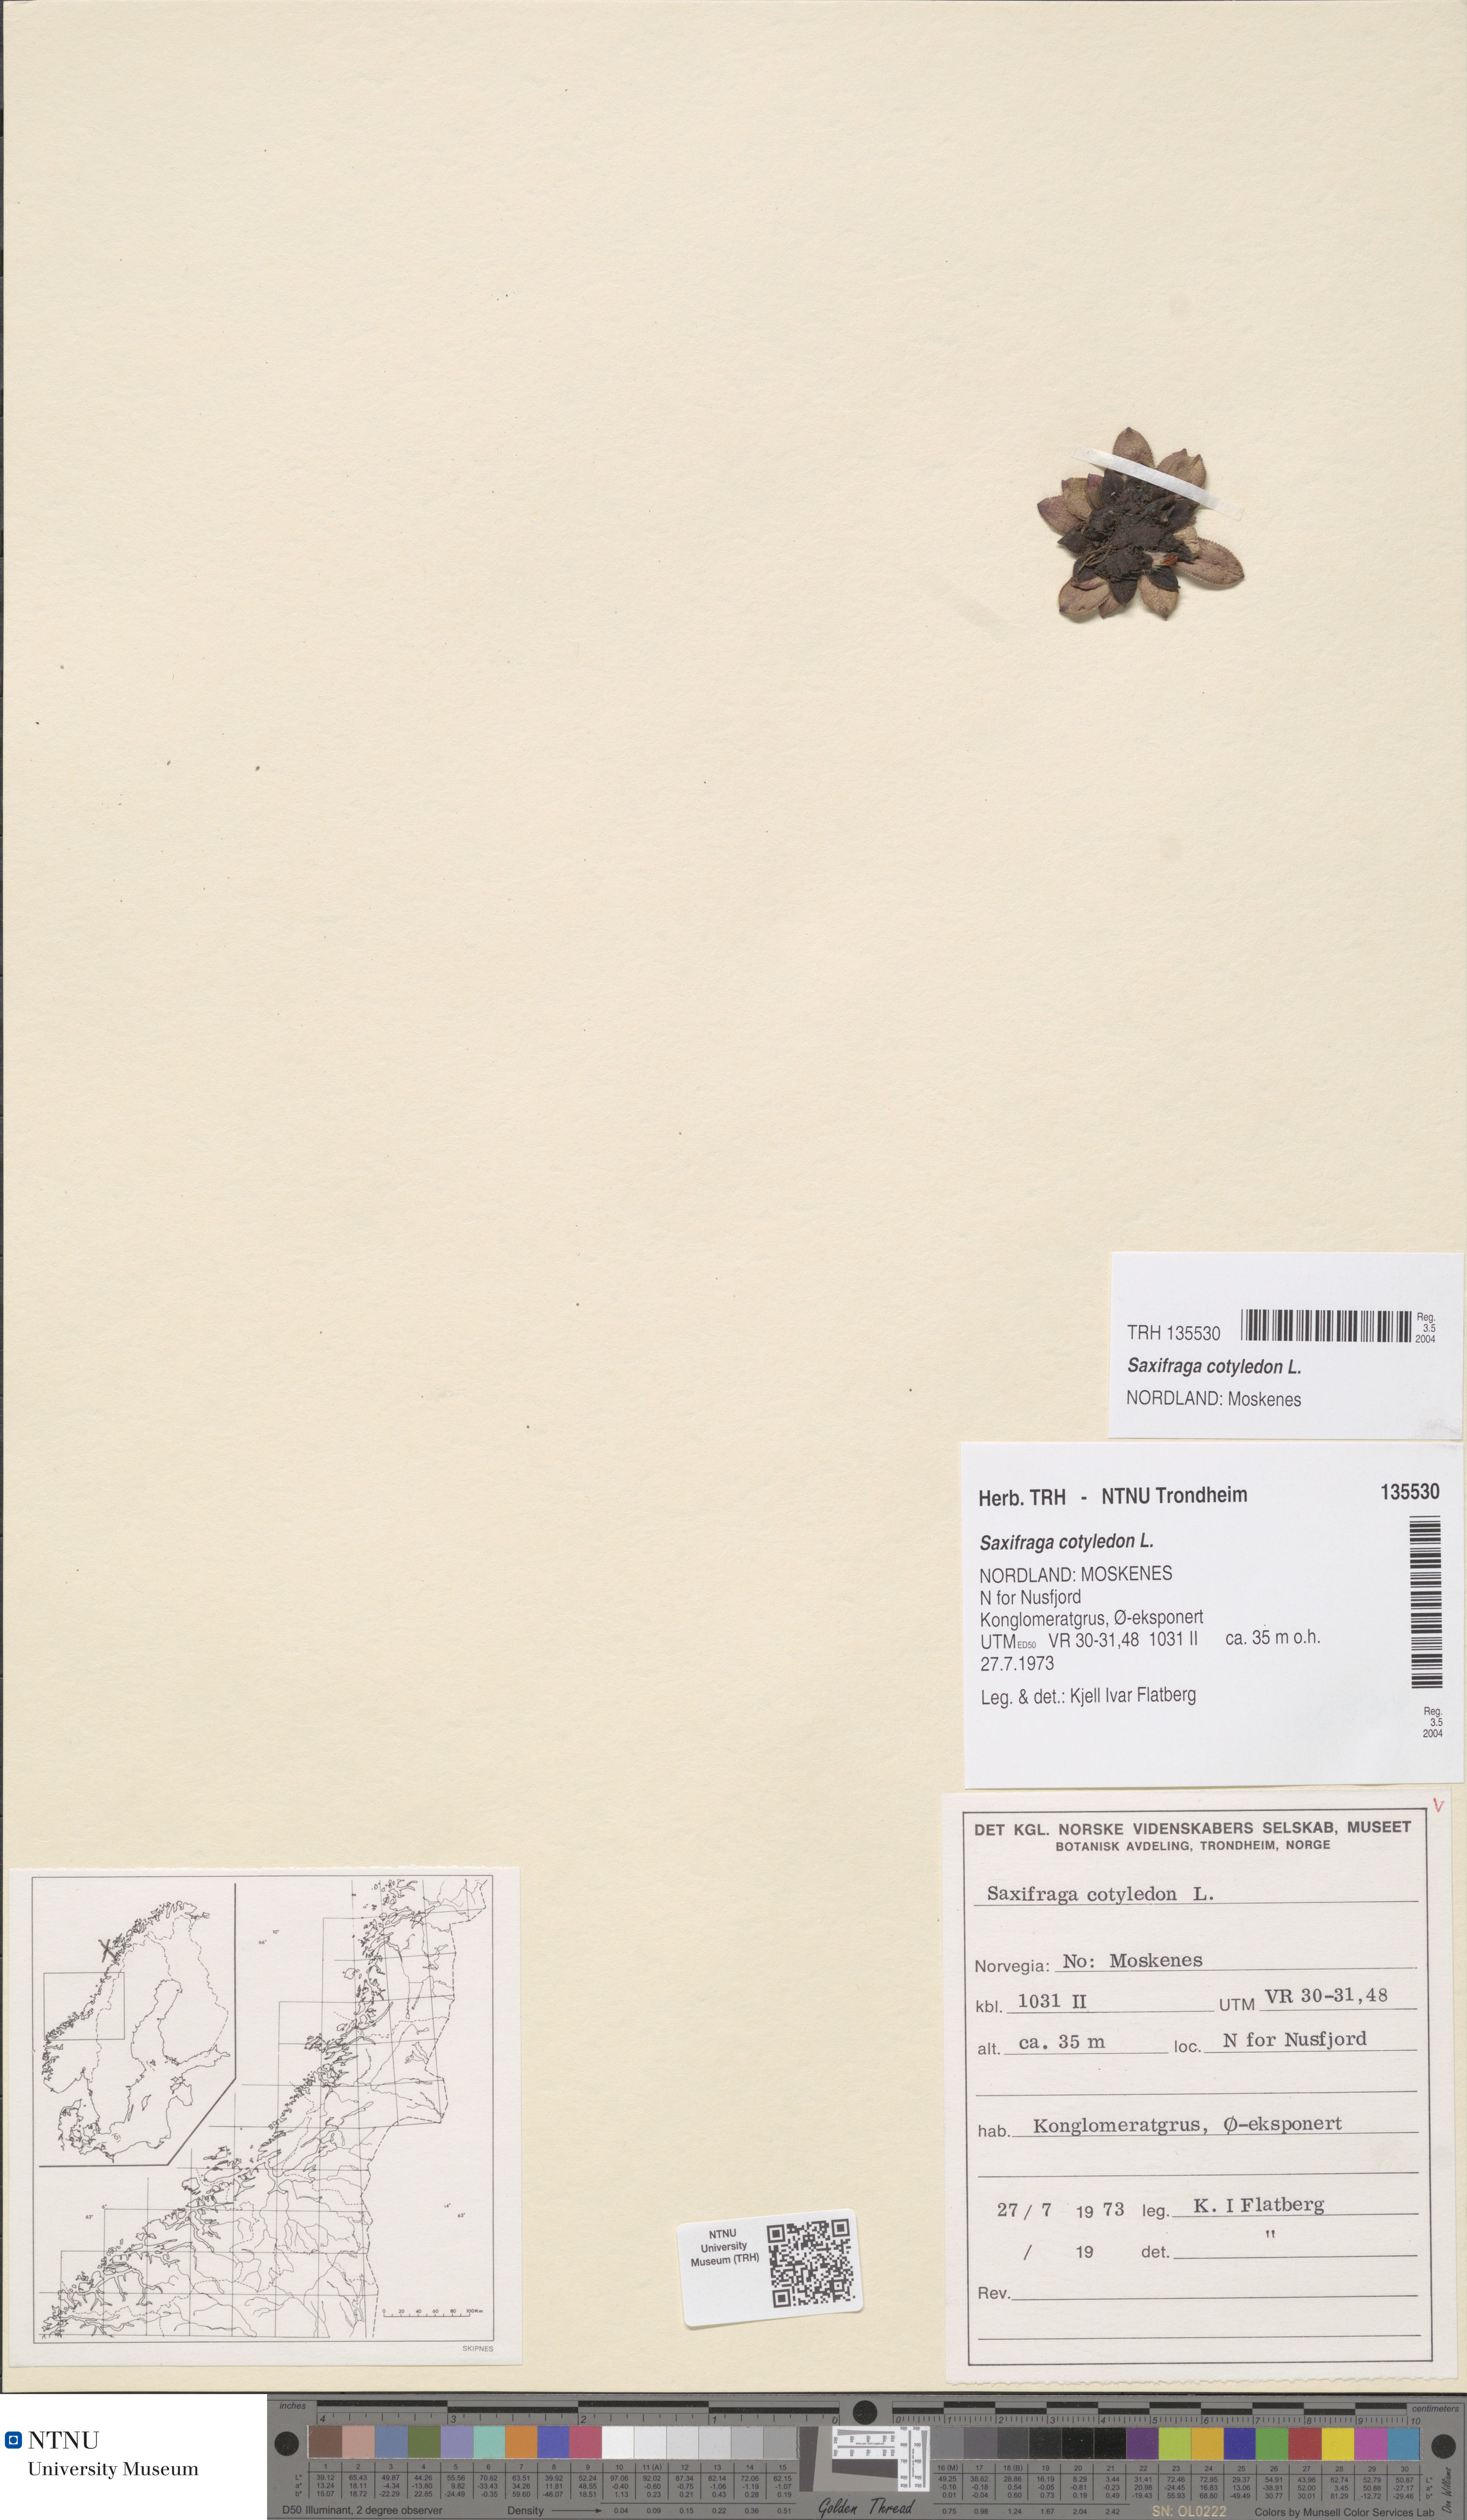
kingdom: Plantae
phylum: Tracheophyta
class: Magnoliopsida
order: Saxifragales
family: Saxifragaceae
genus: Saxifraga
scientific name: Saxifraga cotyledon
